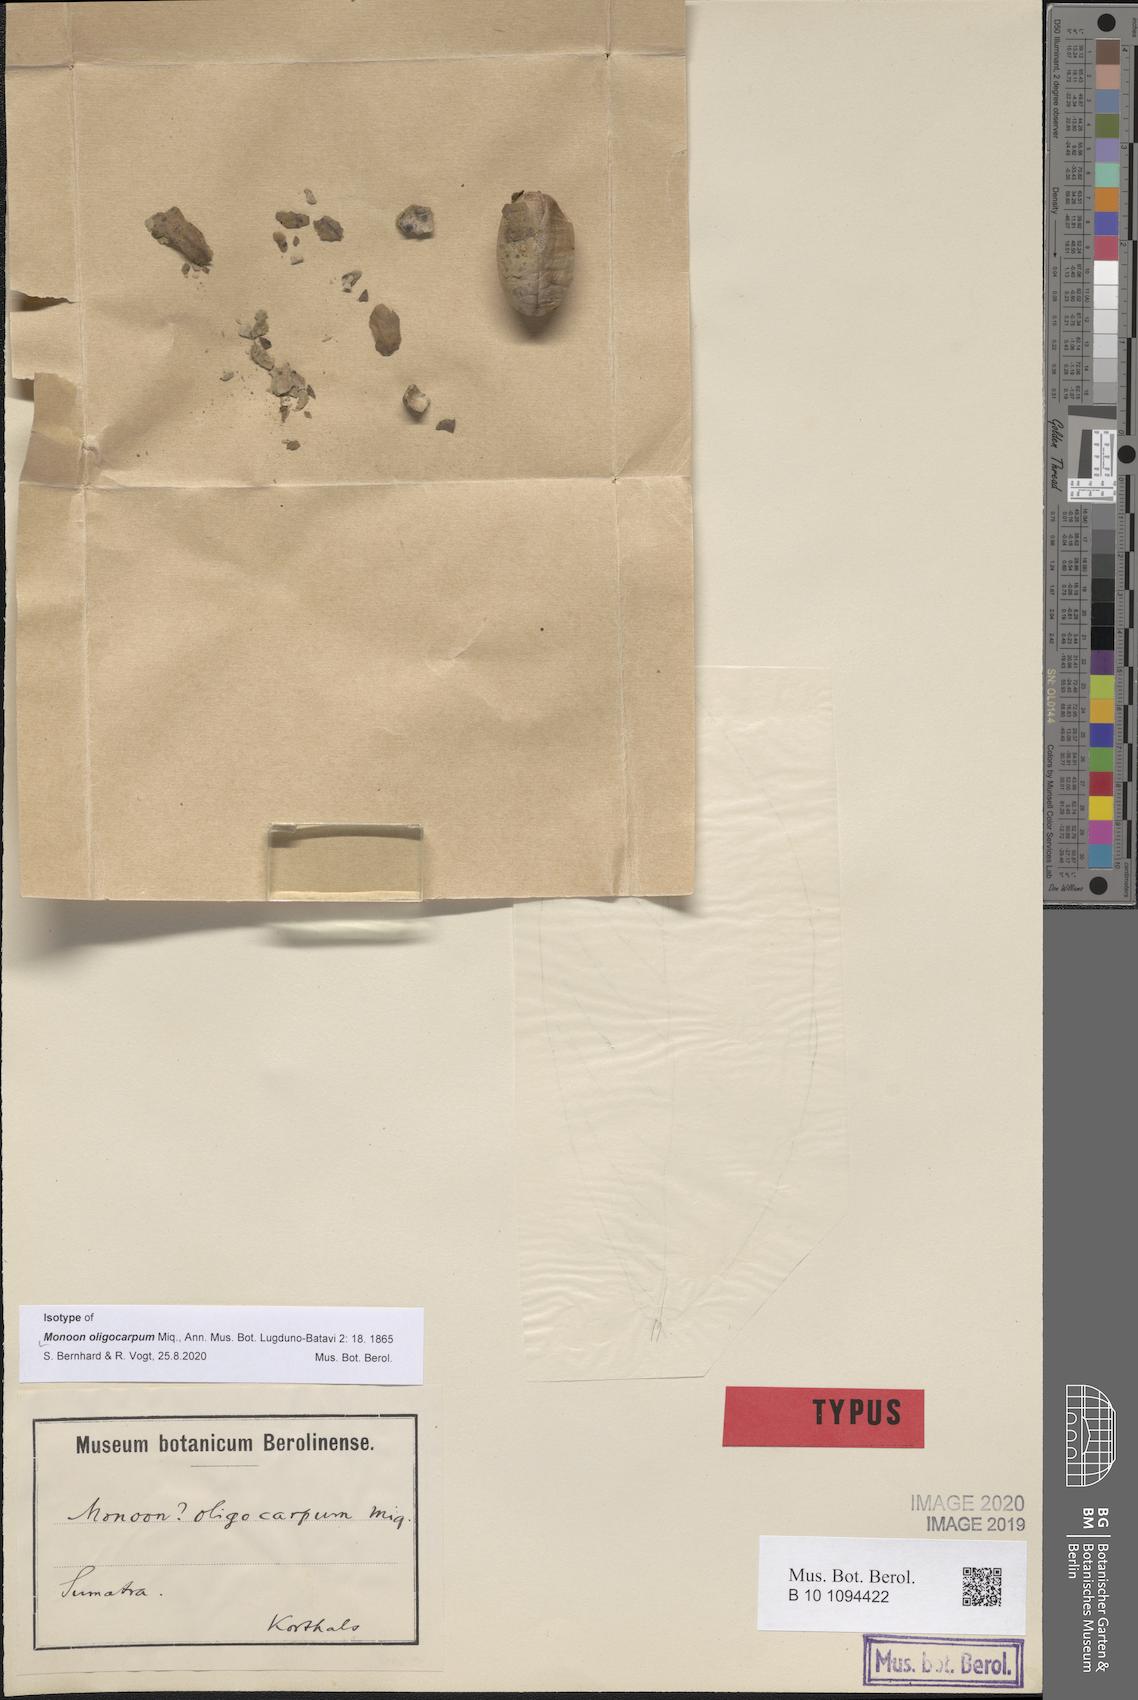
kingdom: Plantae
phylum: Tracheophyta
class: Magnoliopsida
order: Magnoliales
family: Annonaceae
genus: Monoon
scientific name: Monoon oligocarpum
